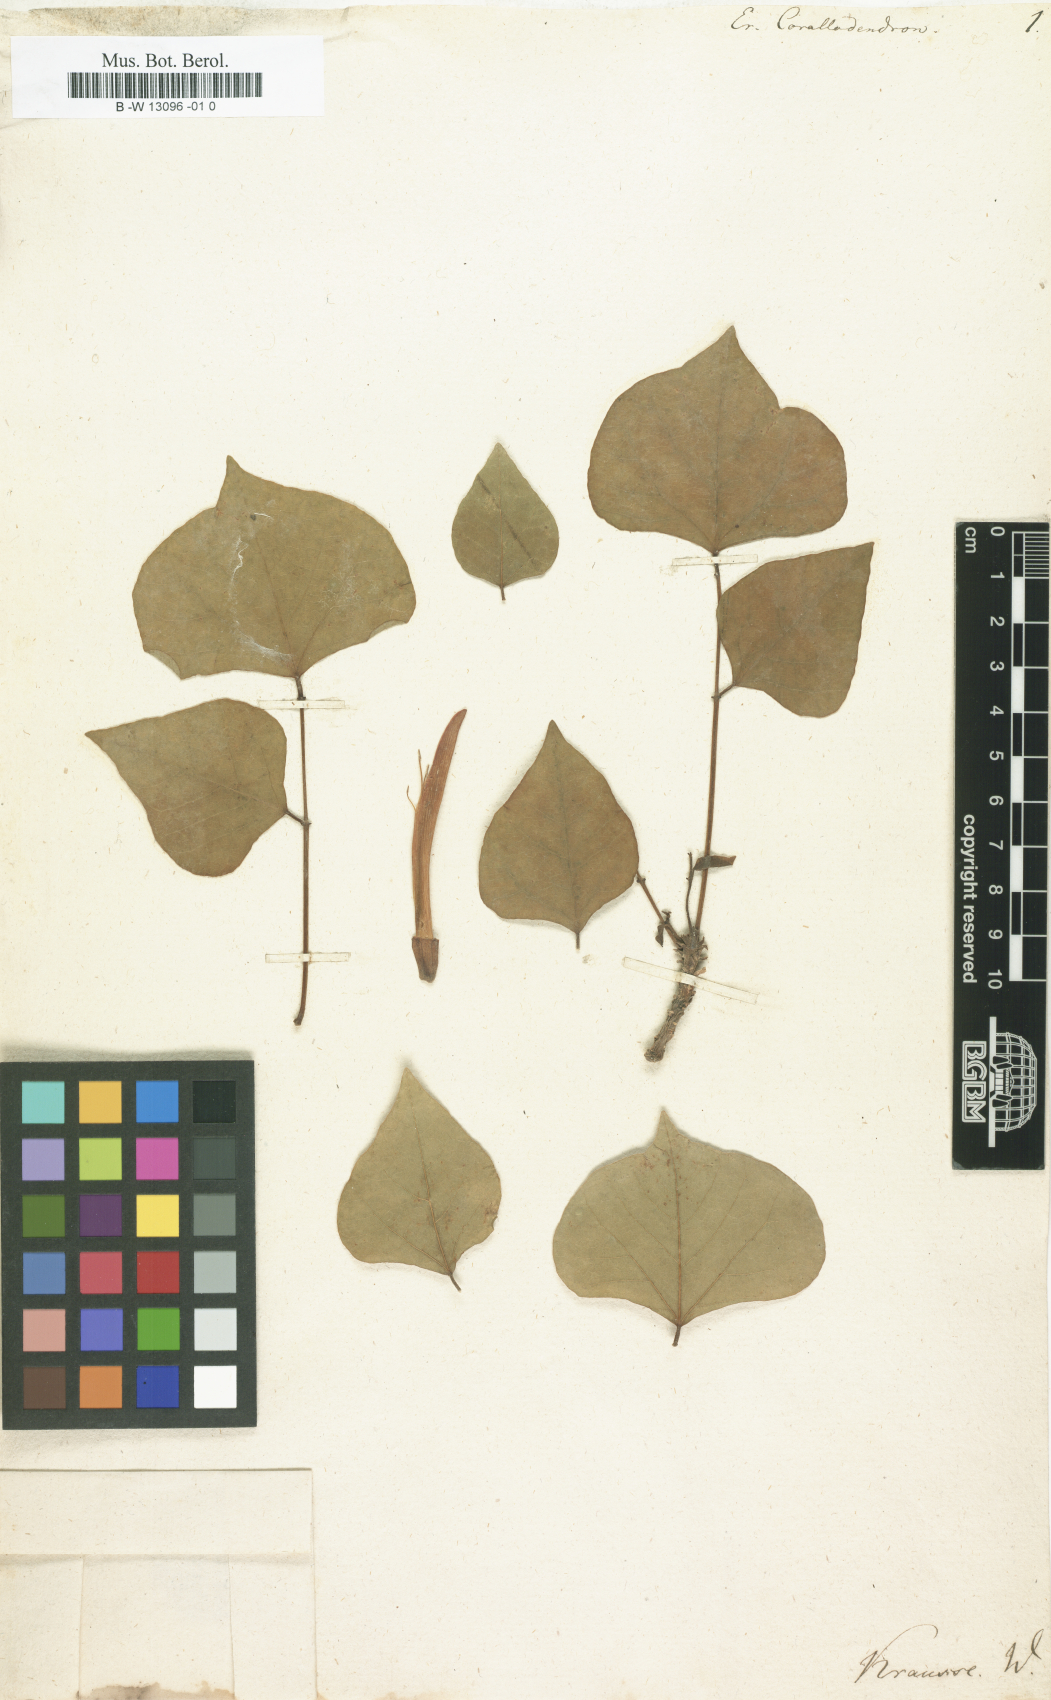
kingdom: Plantae
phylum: Tracheophyta
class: Magnoliopsida
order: Fabales
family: Fabaceae
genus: Erythrina
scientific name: Erythrina corallodendron
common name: Coraltree
